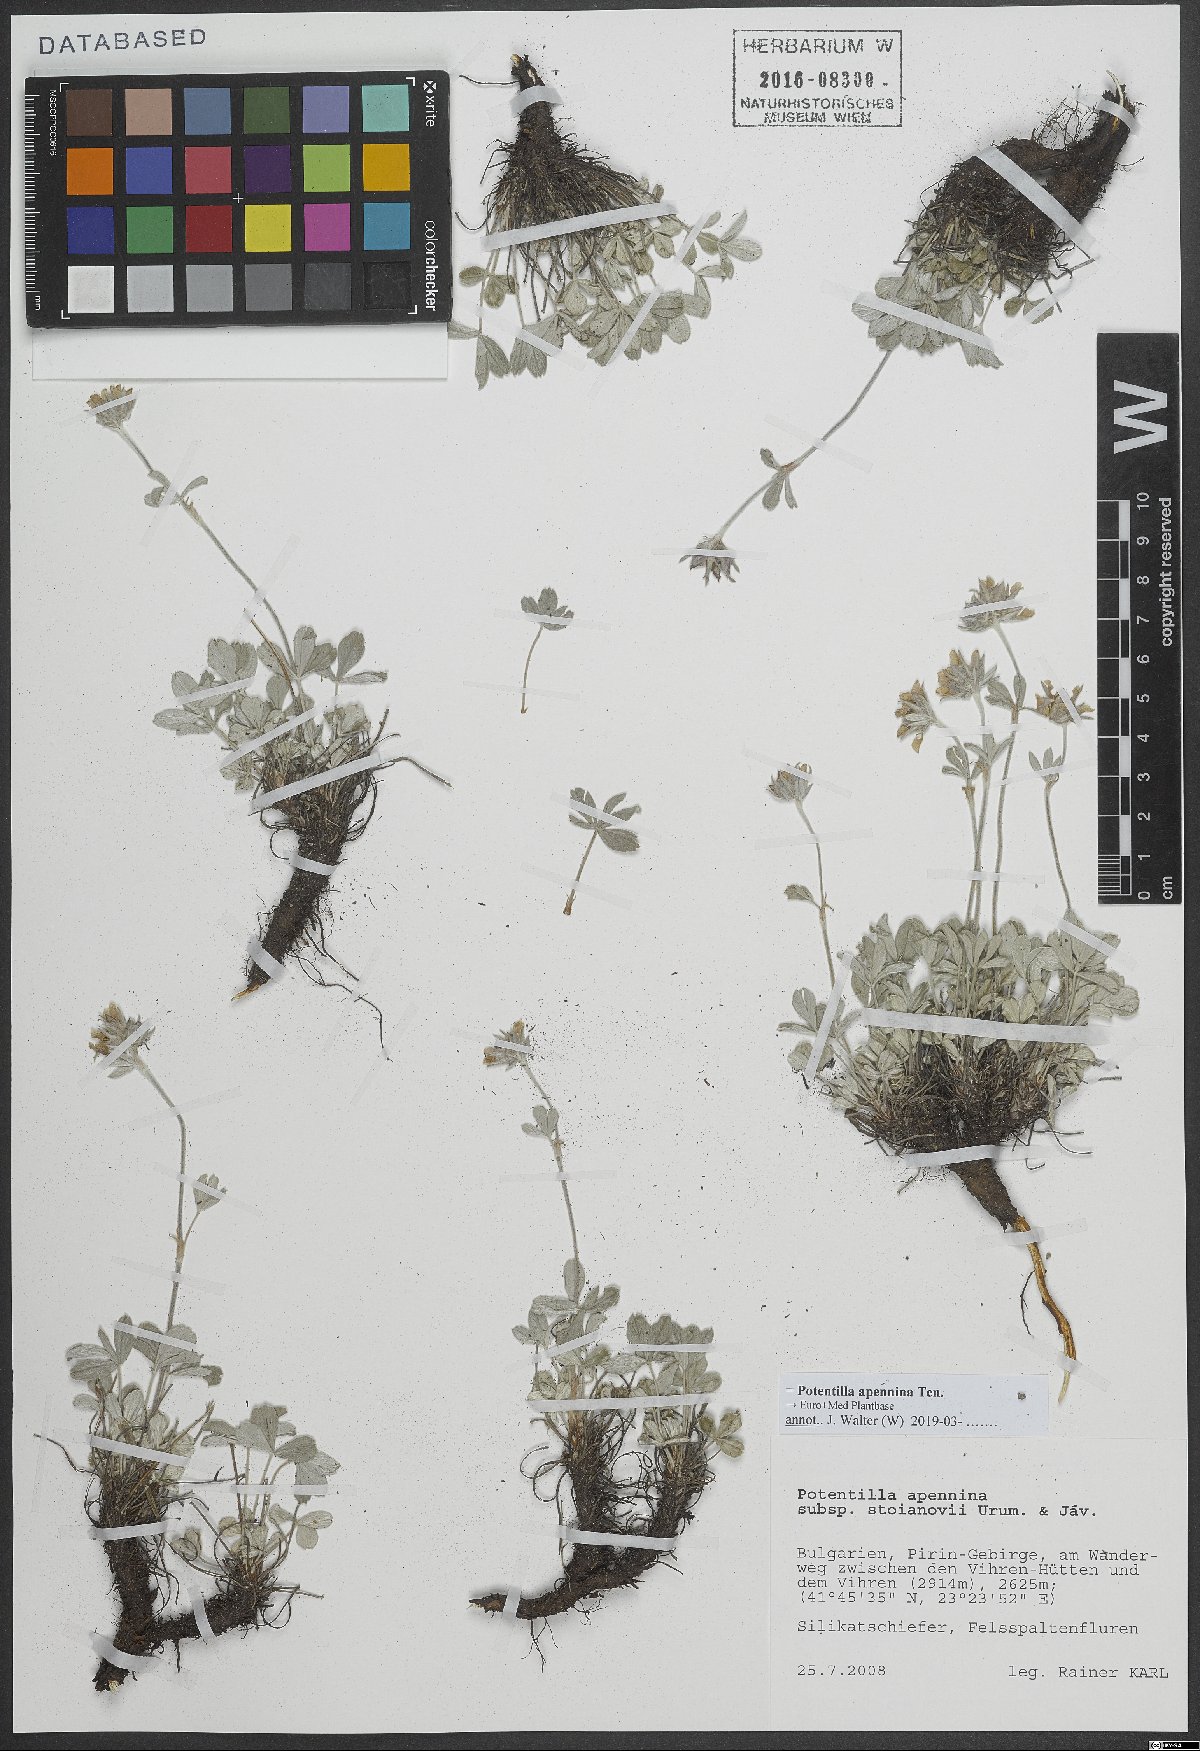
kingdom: Plantae
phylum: Tracheophyta
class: Magnoliopsida
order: Rosales
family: Rosaceae
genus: Potentilla
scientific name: Potentilla apennina
